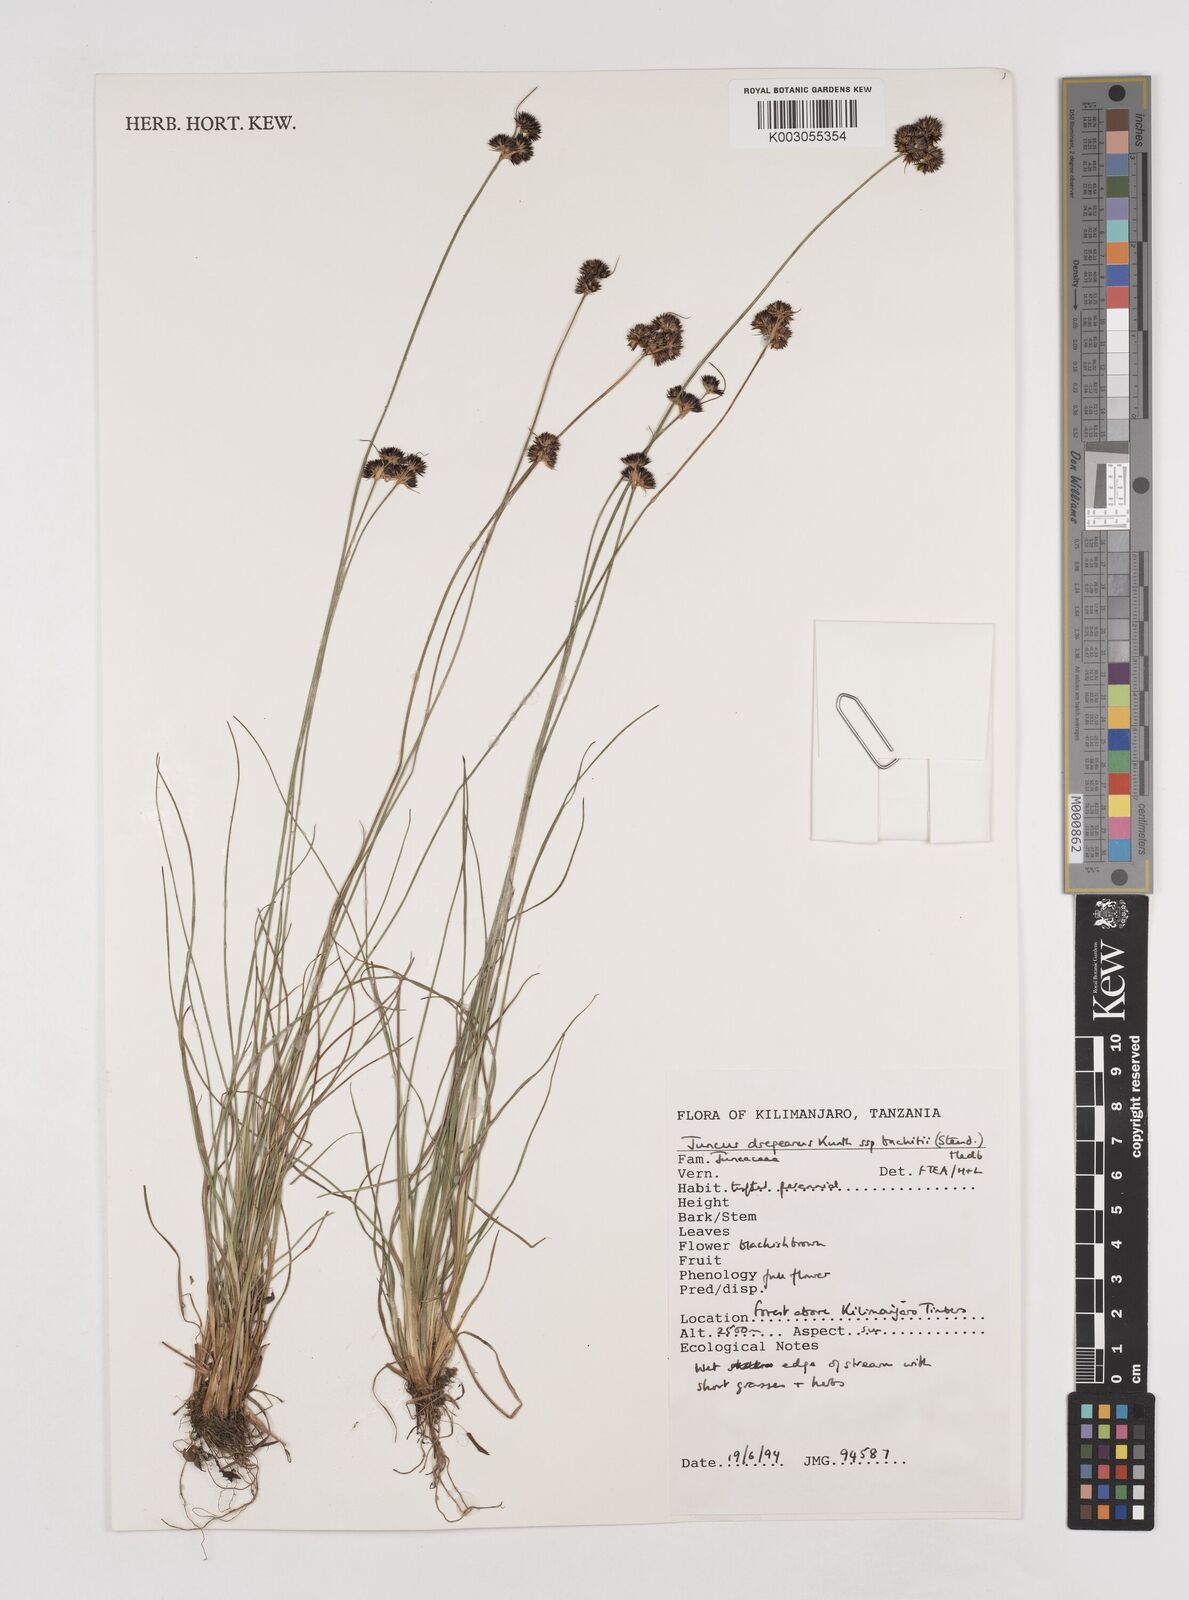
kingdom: Plantae
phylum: Tracheophyta
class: Liliopsida
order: Poales
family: Juncaceae
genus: Juncus
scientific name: Juncus dregeanus
